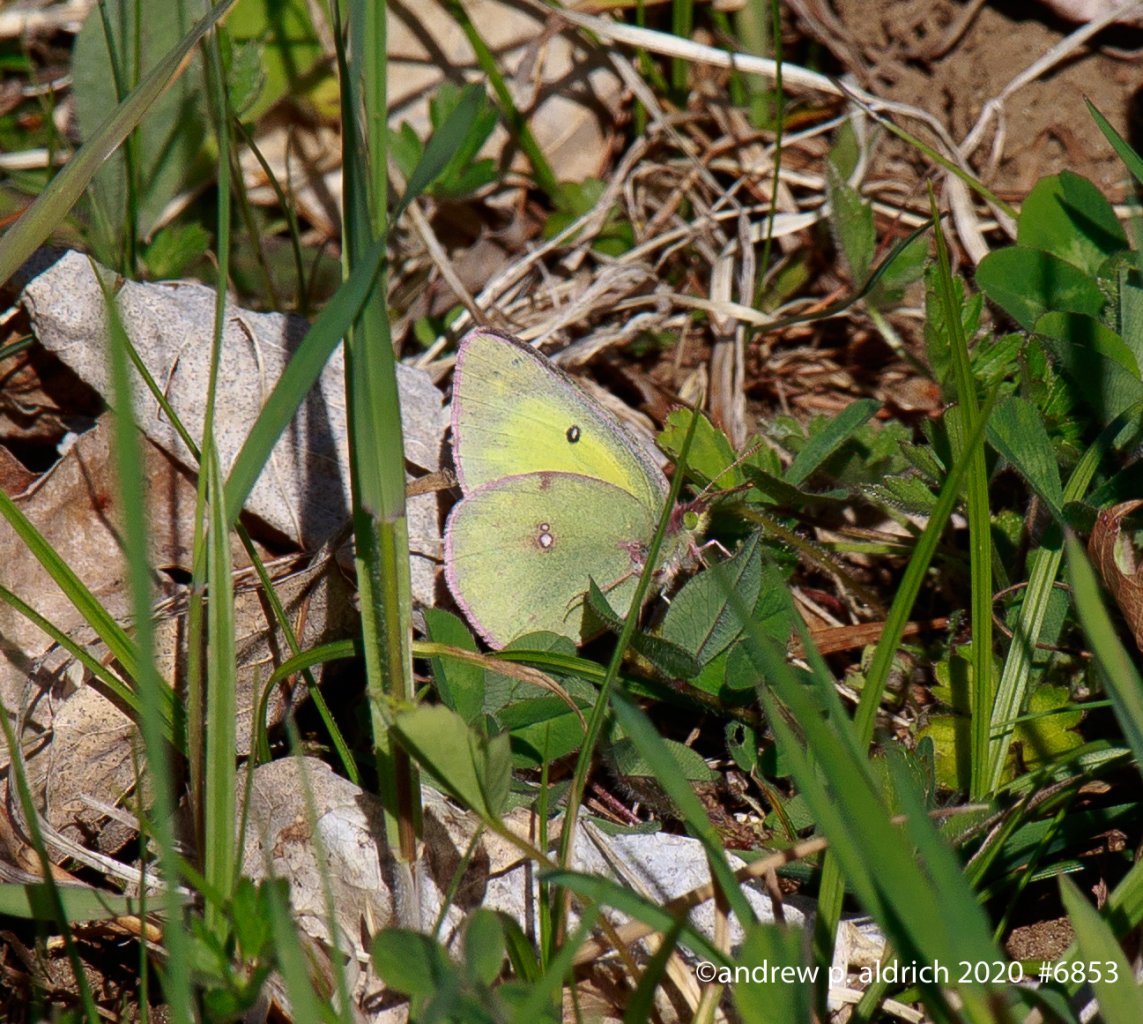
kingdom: Animalia
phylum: Arthropoda
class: Insecta
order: Lepidoptera
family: Pieridae
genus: Colias
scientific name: Colias philodice
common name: Clouded Sulphur
